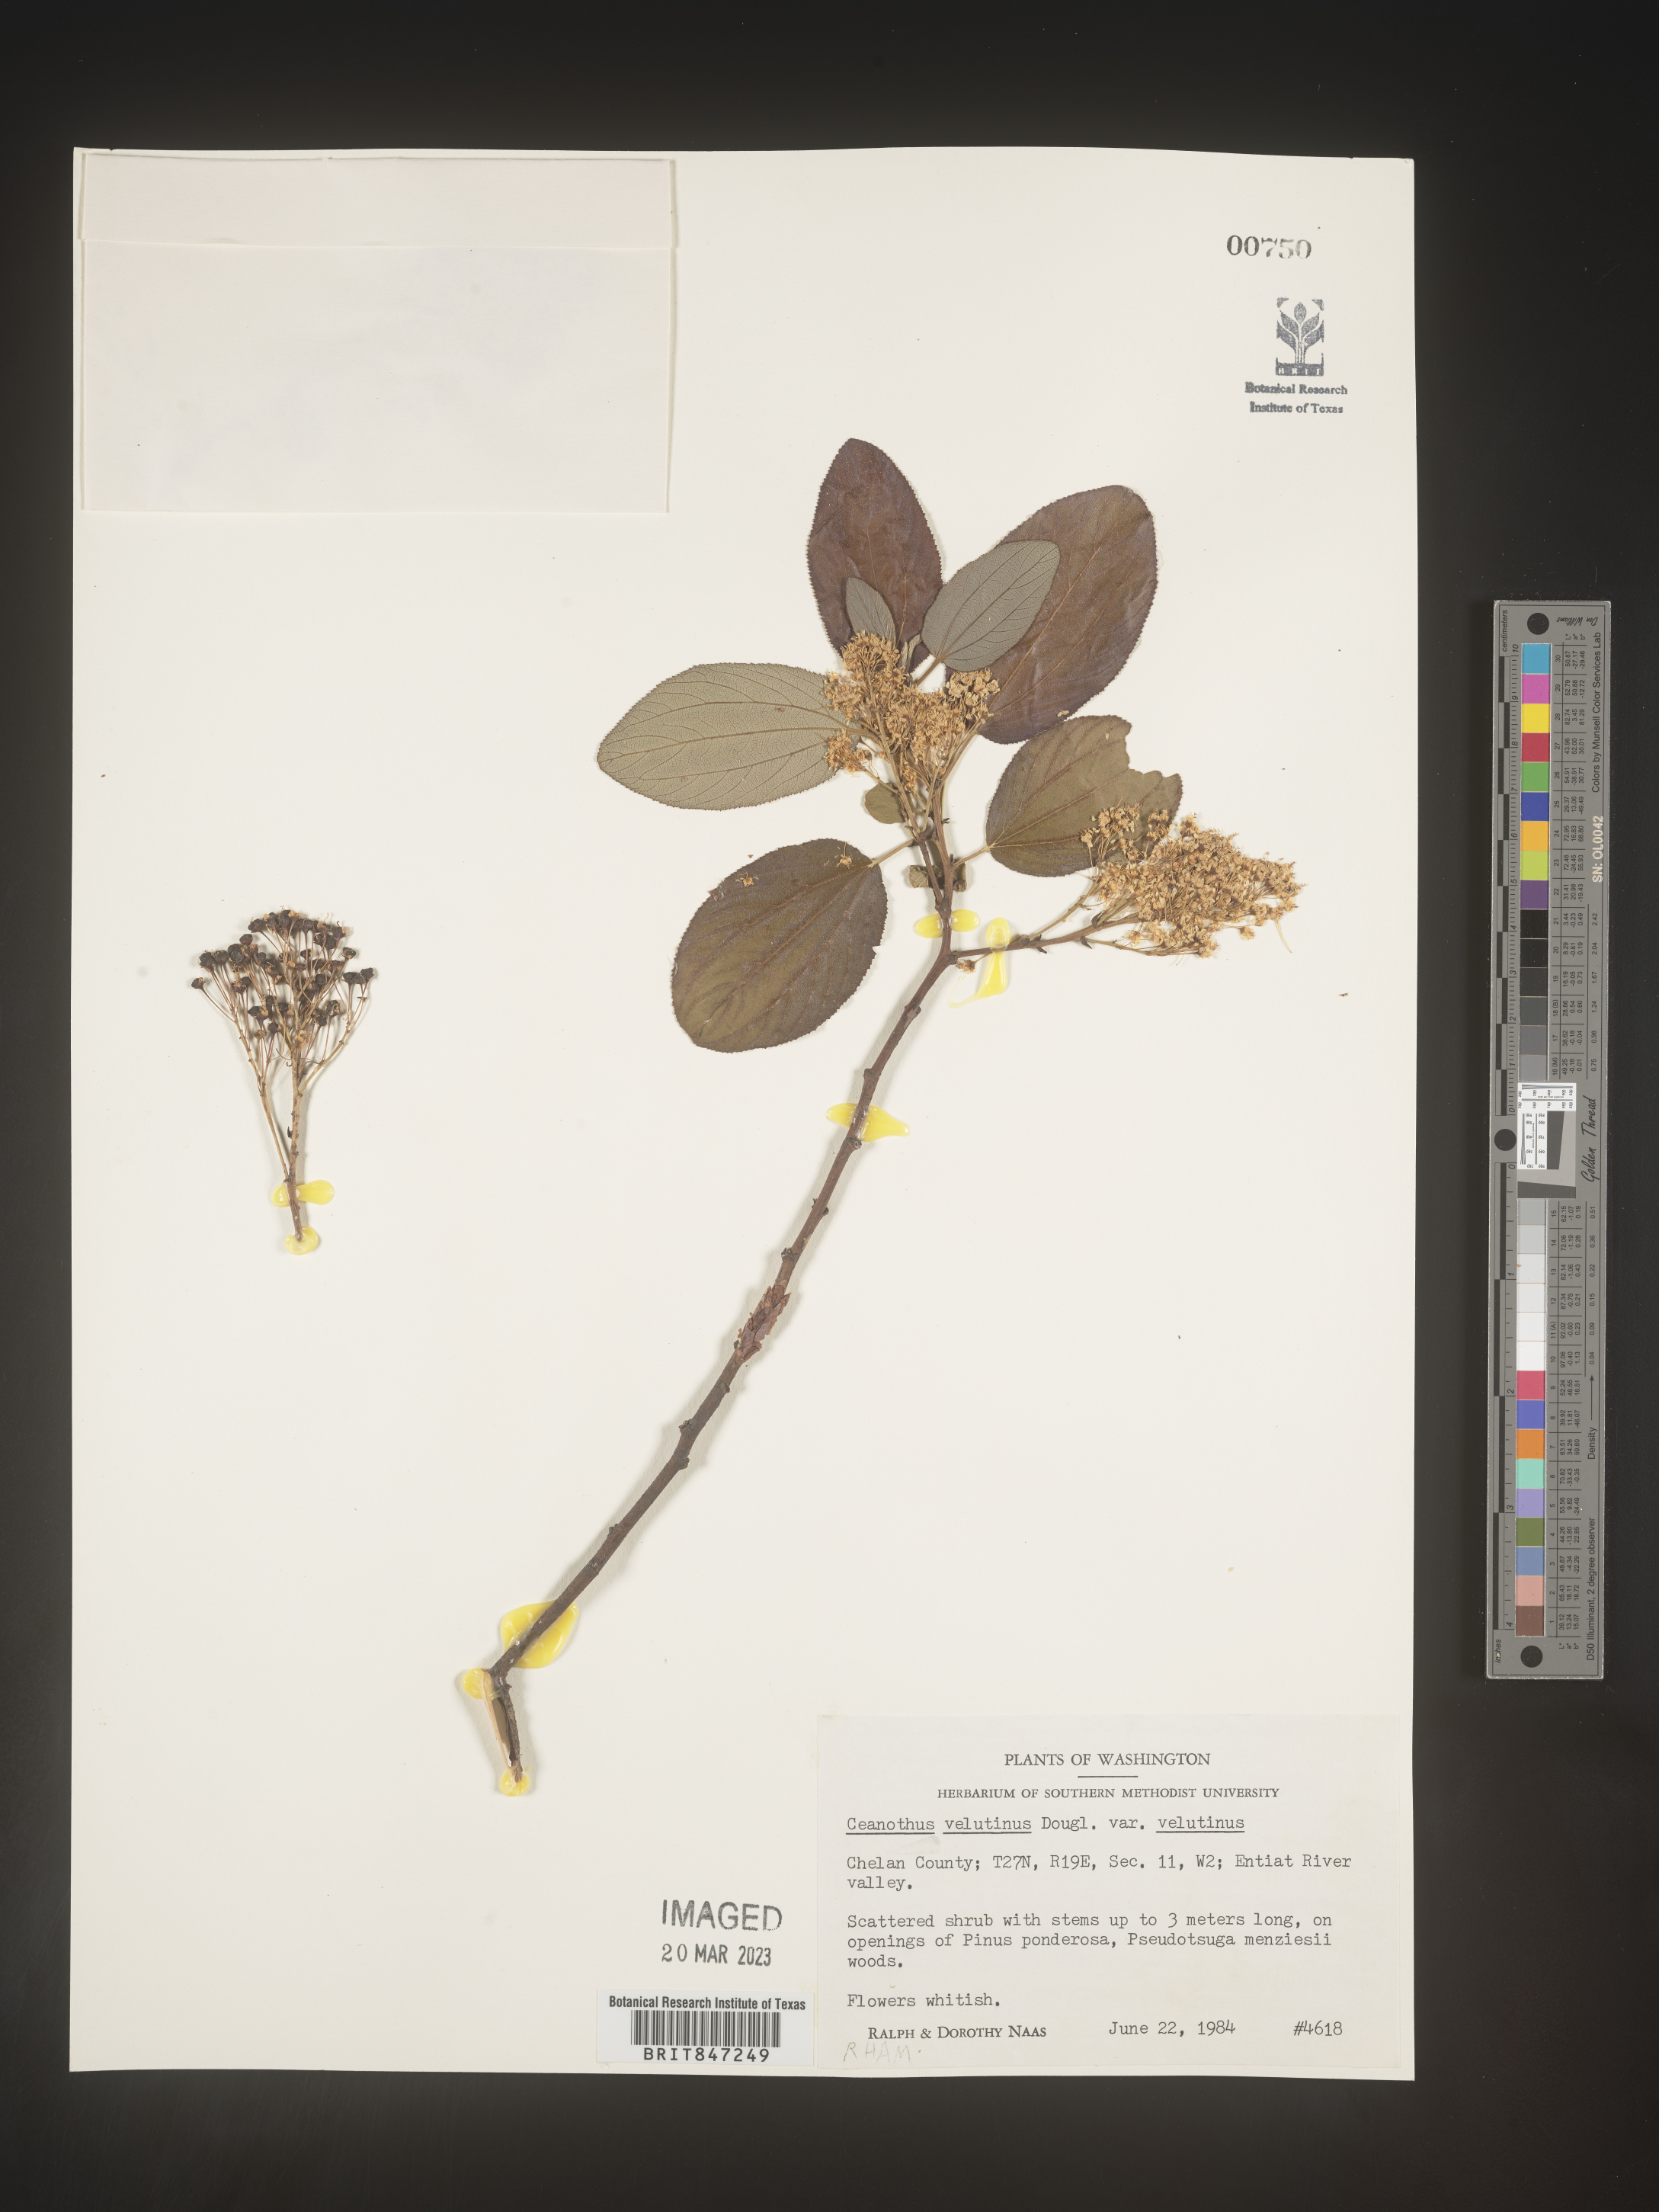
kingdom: Plantae
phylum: Tracheophyta
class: Magnoliopsida
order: Rosales
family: Rhamnaceae
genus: Ceanothus
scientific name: Ceanothus velutinus
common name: Snowbrush
